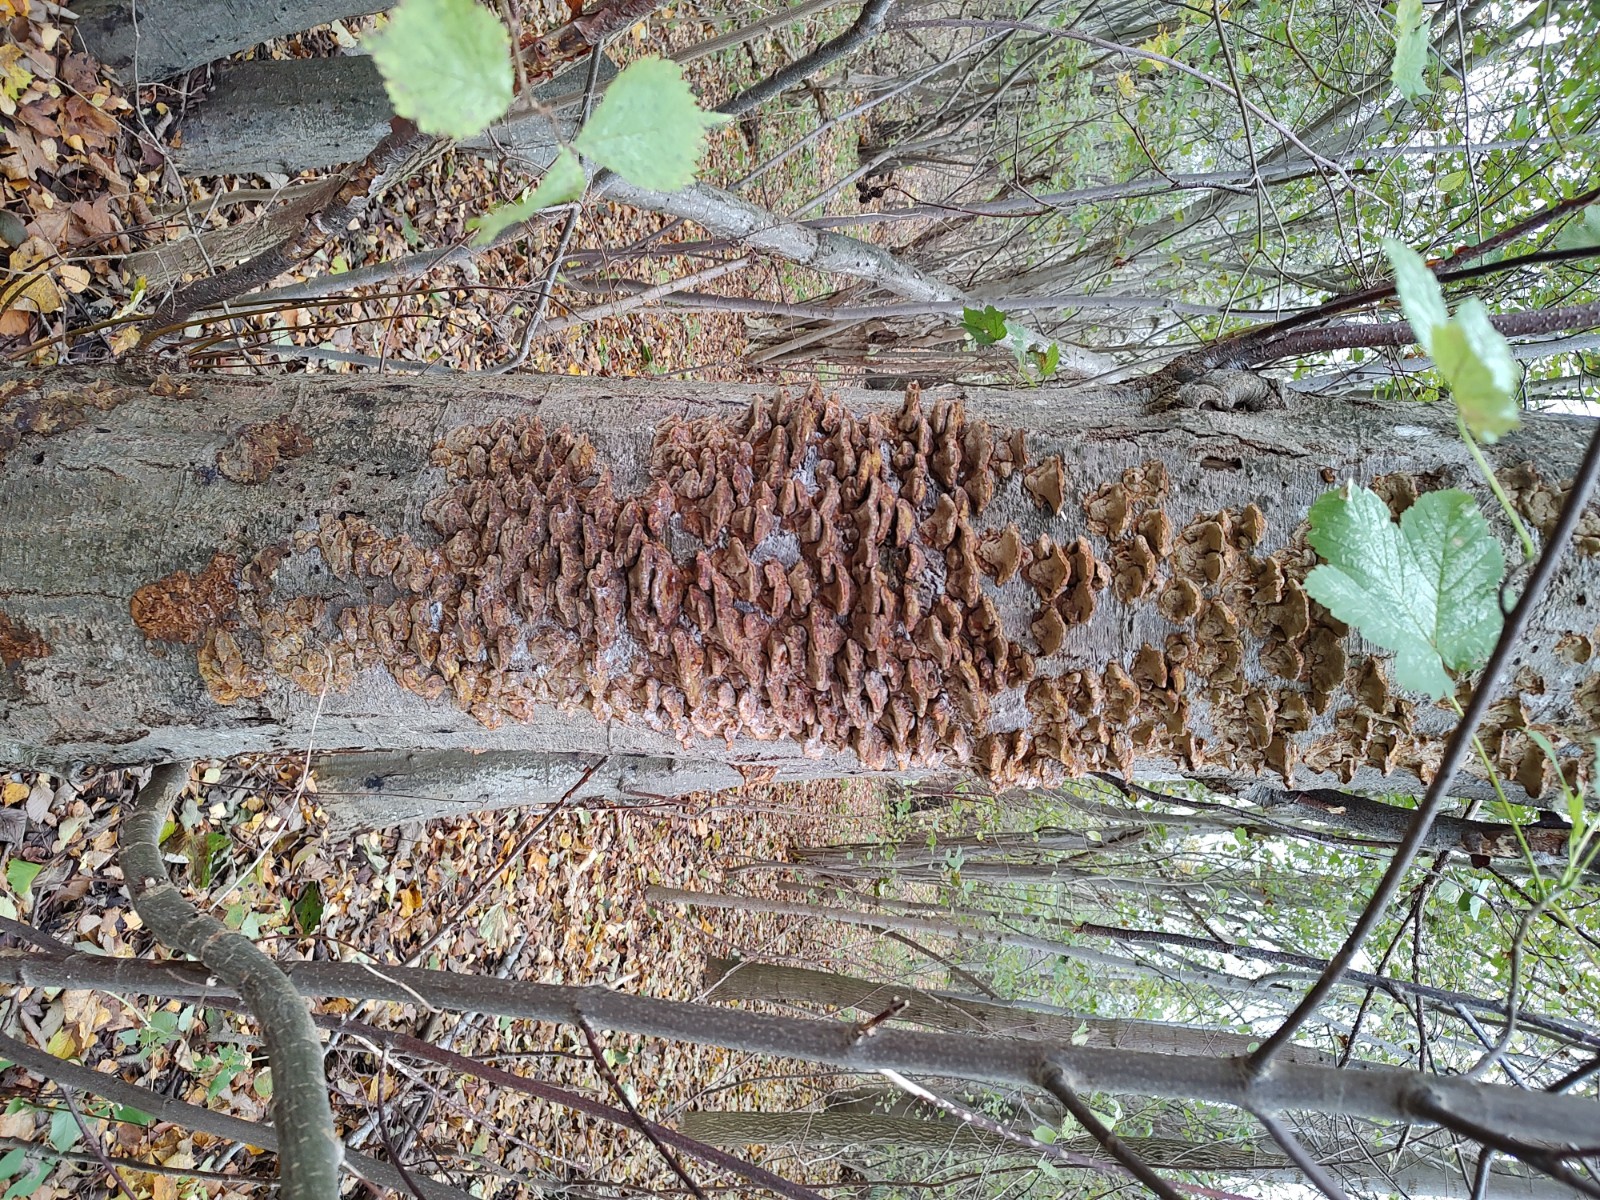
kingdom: Fungi
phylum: Basidiomycota
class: Agaricomycetes
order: Hymenochaetales
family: Hymenochaetaceae
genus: Xanthoporia
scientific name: Xanthoporia radiata
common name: elle-spejlporesvamp
